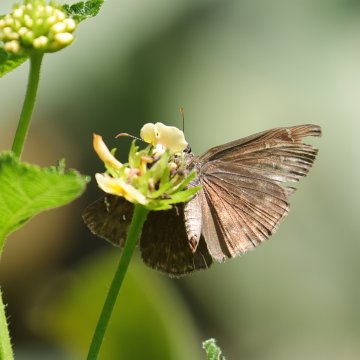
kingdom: Animalia
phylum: Arthropoda
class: Insecta
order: Lepidoptera
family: Hesperiidae
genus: Gesta
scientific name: Gesta
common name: Horace's Duskywing
